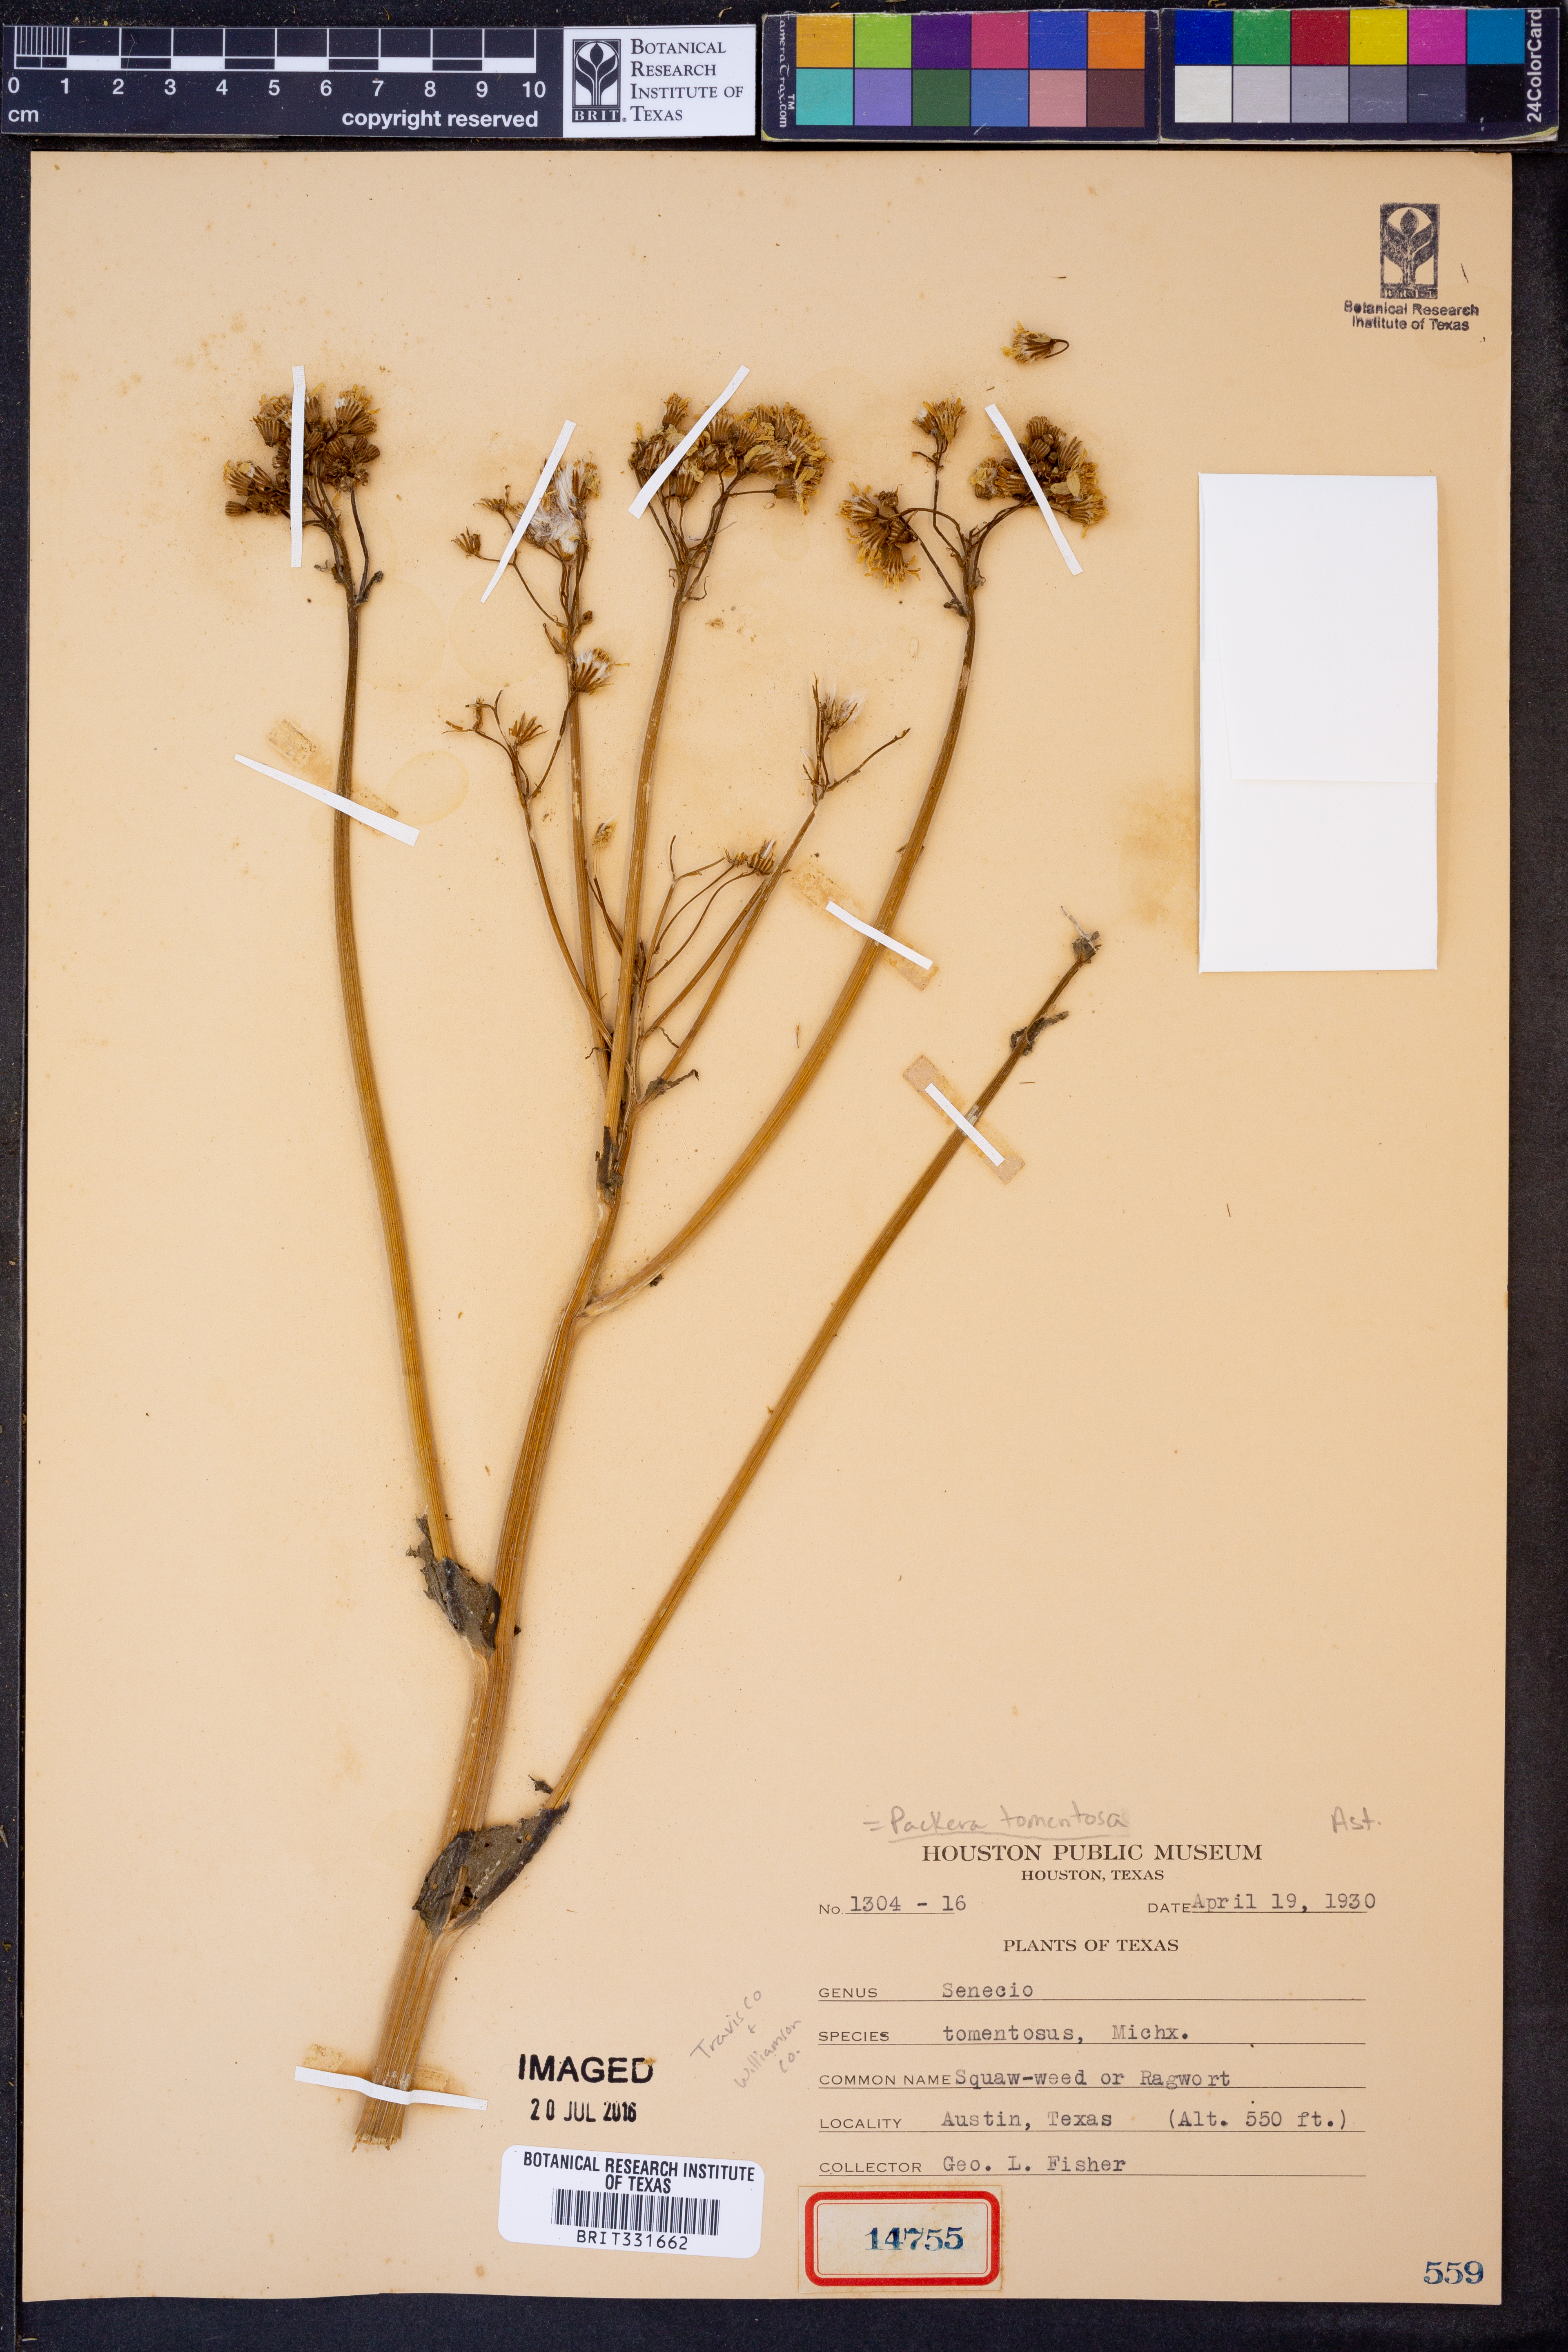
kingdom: Plantae
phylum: Tracheophyta
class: Magnoliopsida
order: Asterales
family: Asteraceae
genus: Packera
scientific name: Packera dubia
